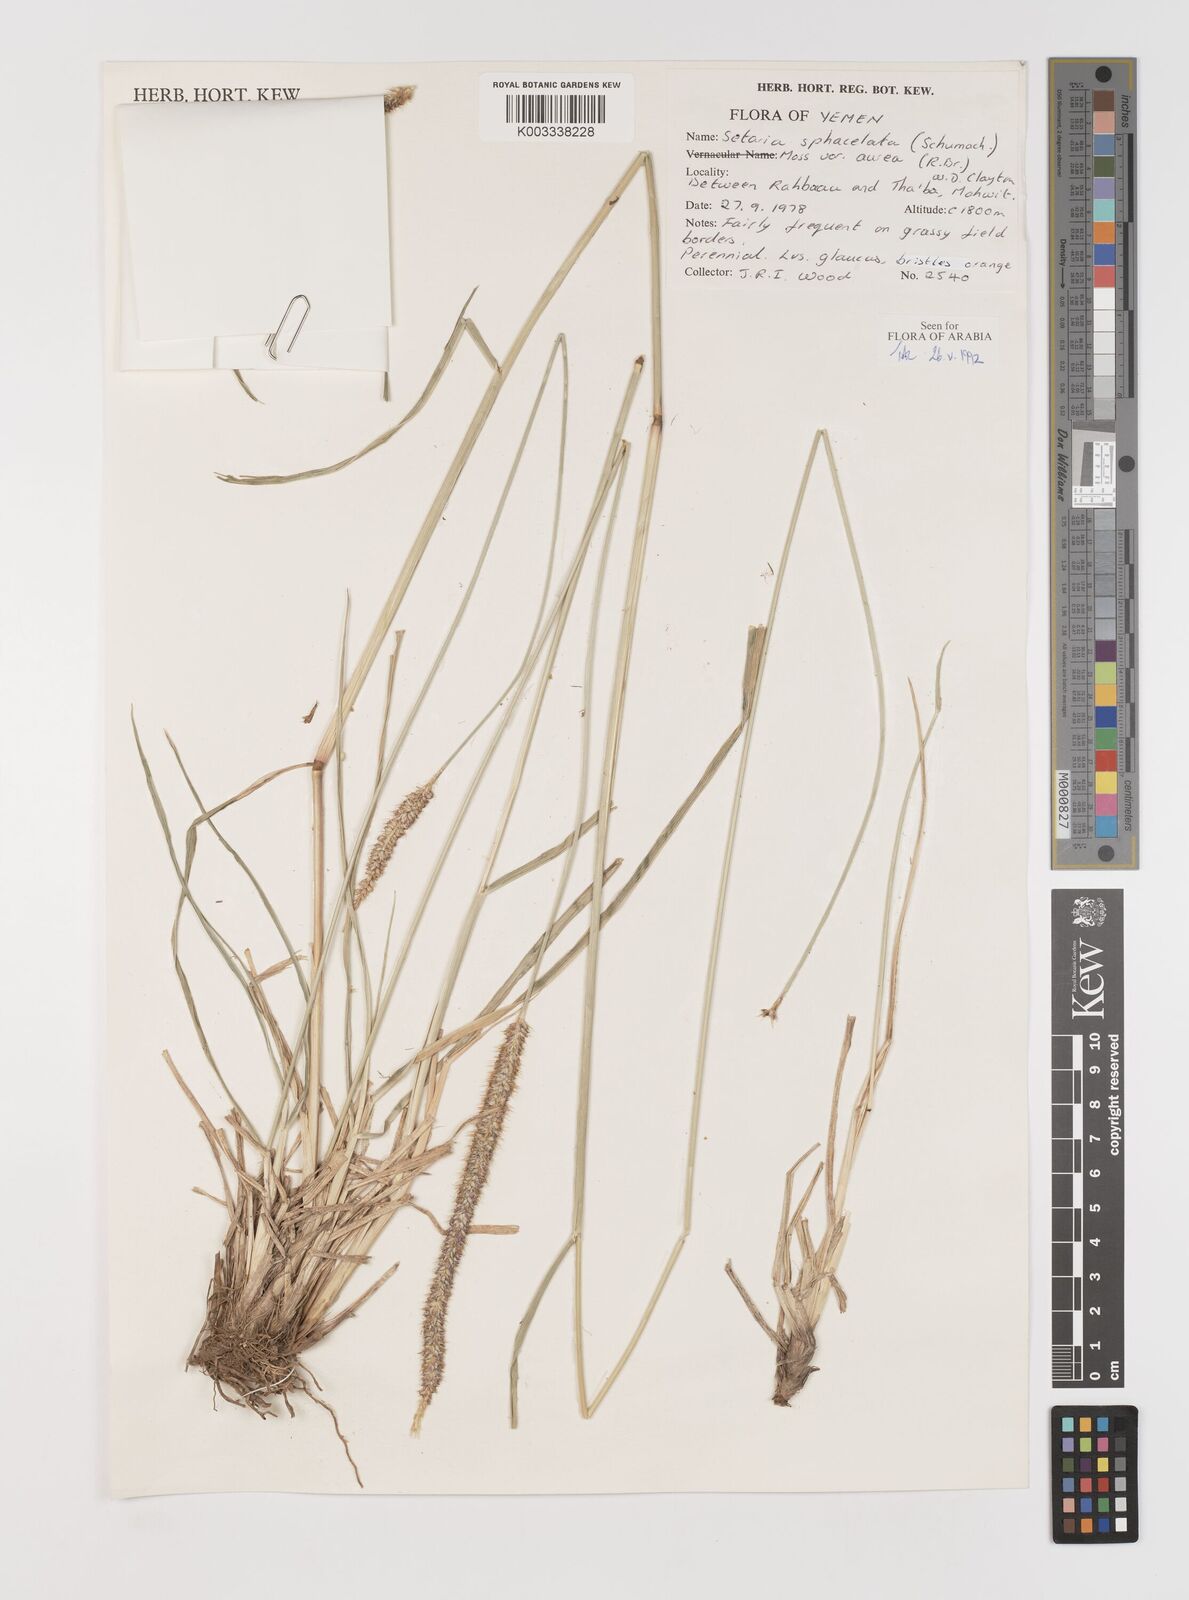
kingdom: Plantae
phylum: Tracheophyta
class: Liliopsida
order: Poales
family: Poaceae
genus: Setaria
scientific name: Setaria sphacelata
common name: African bristlegrass
